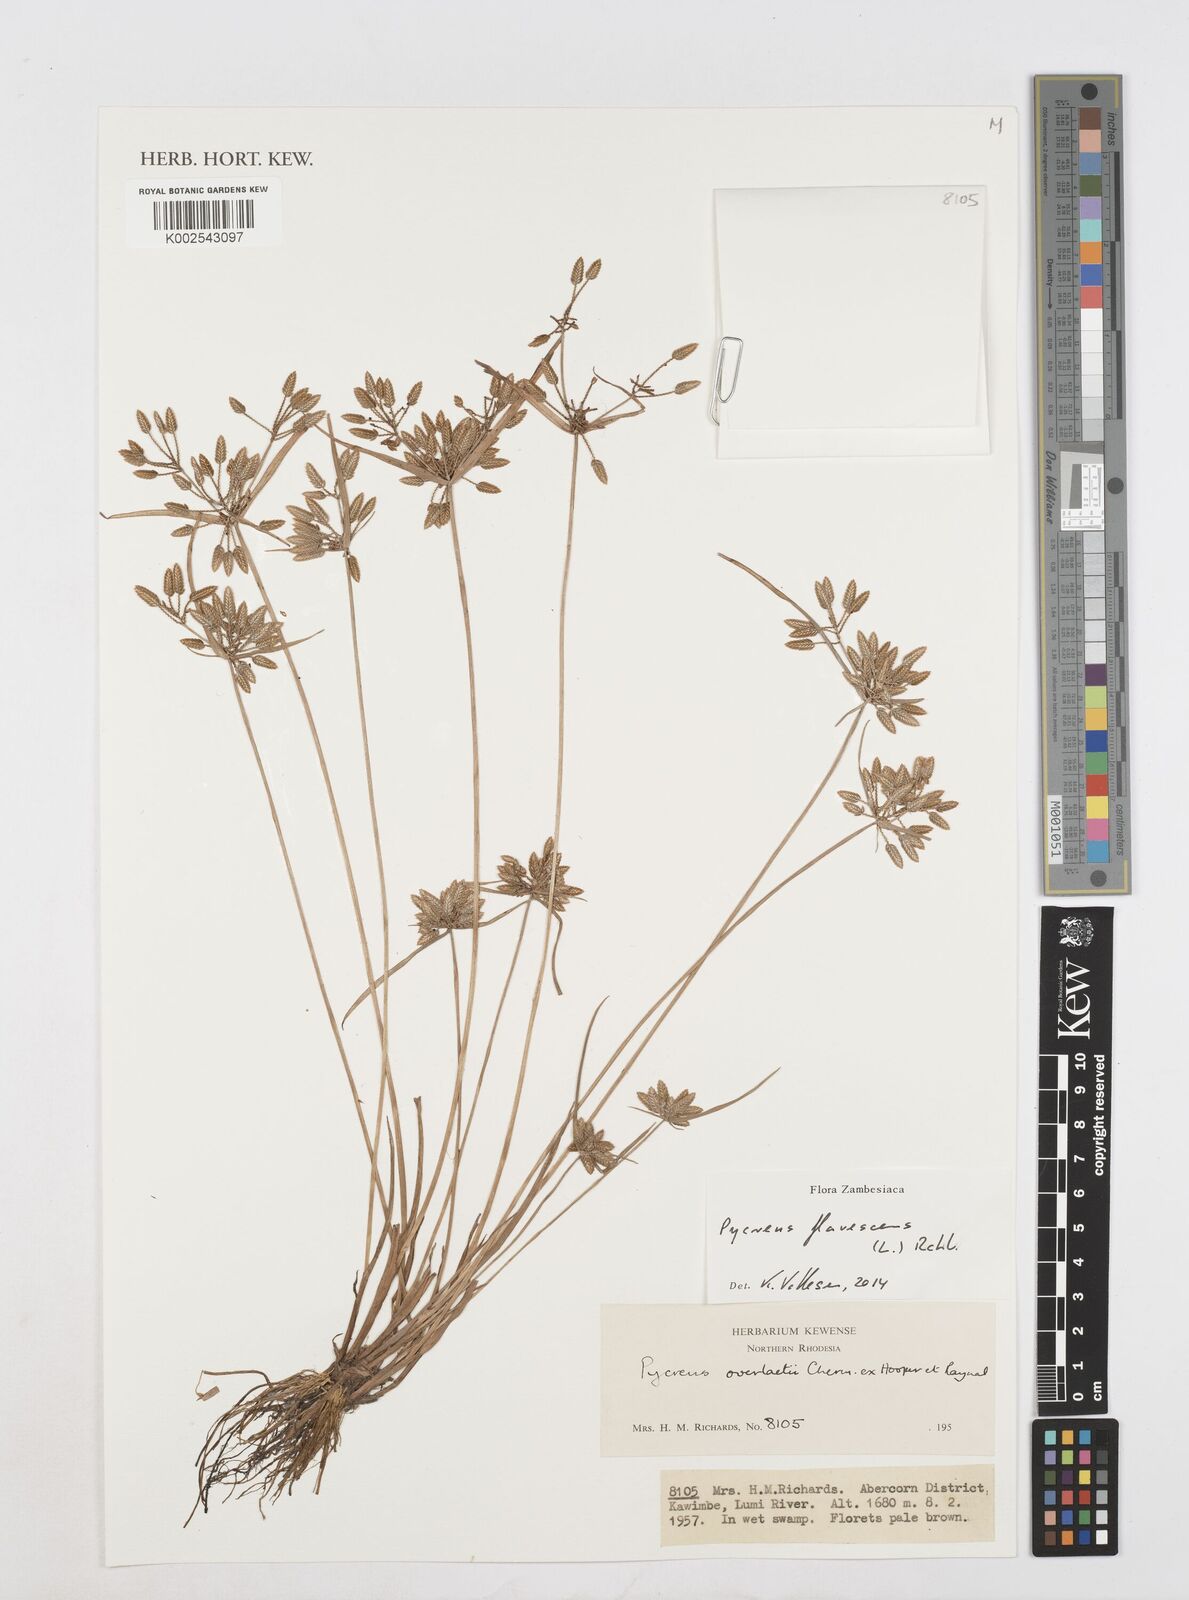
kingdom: Plantae
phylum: Tracheophyta
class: Liliopsida
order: Poales
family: Cyperaceae
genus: Cyperus
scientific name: Cyperus flavescens
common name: Yellow galingale
